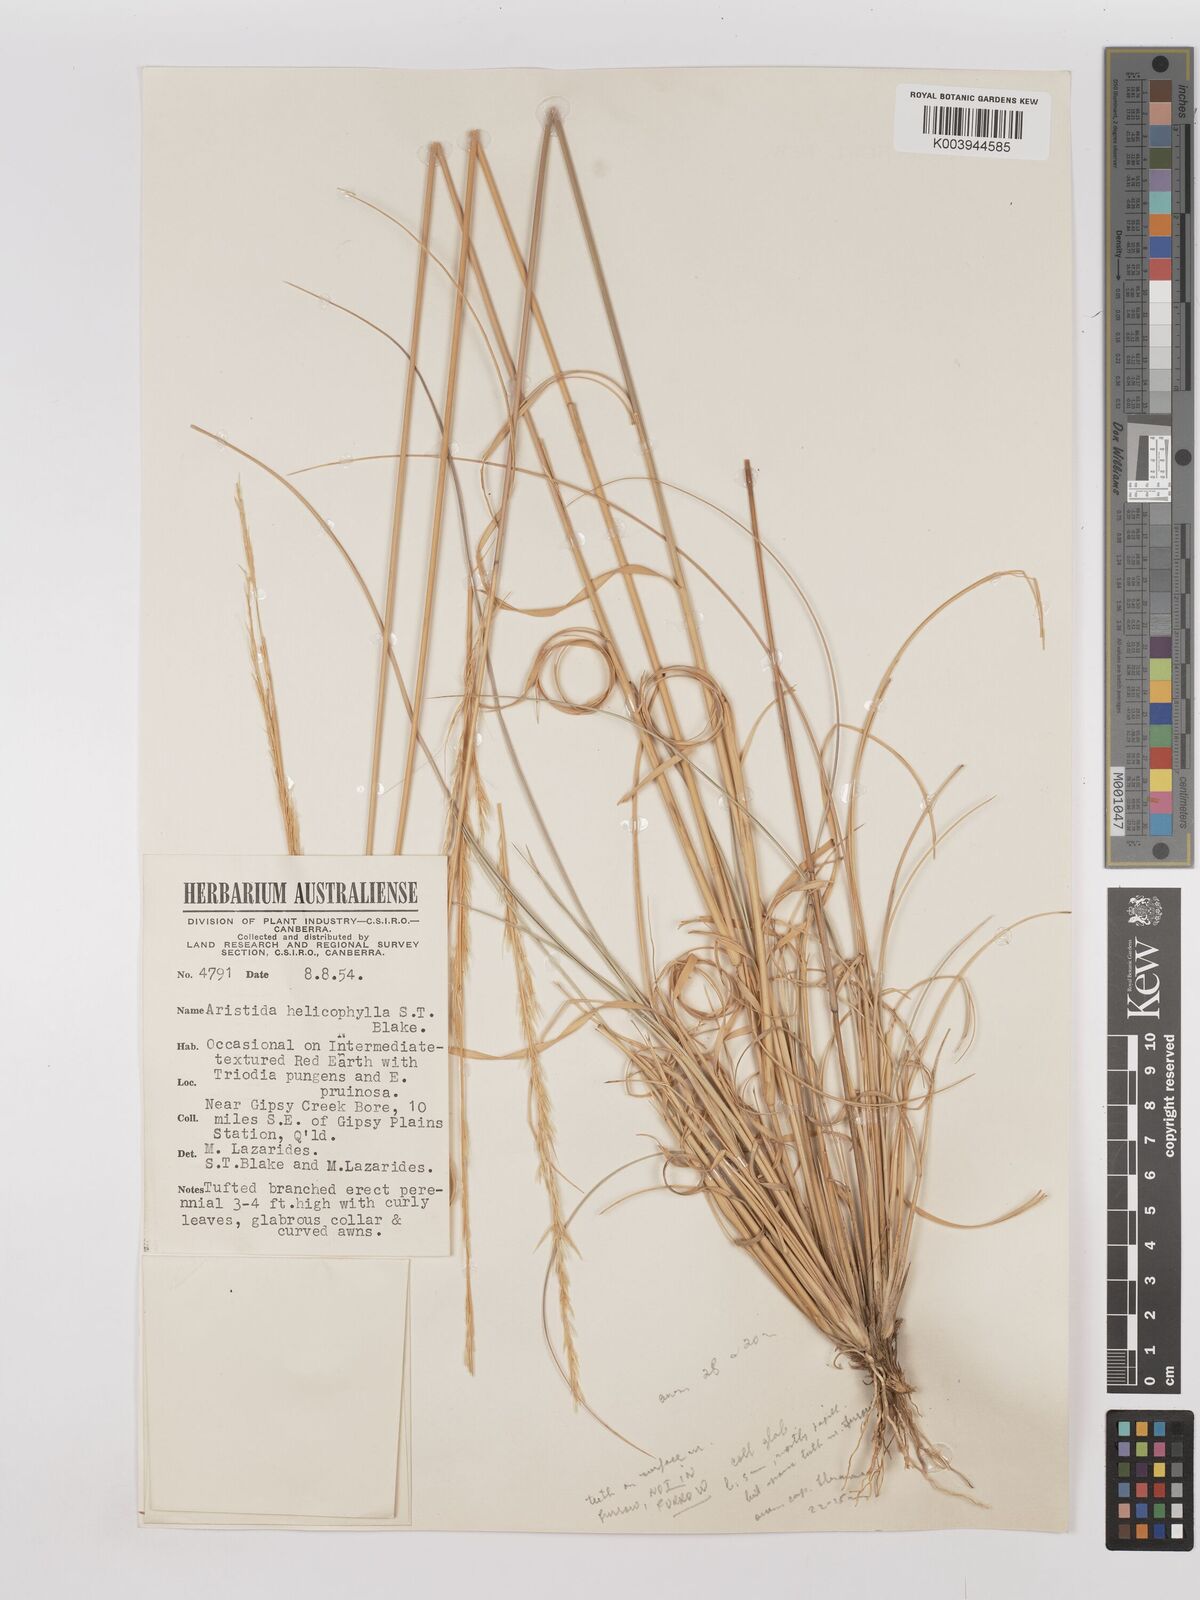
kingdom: Plantae
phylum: Tracheophyta
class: Liliopsida
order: Poales
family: Poaceae
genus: Aristida
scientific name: Aristida helicophylla
